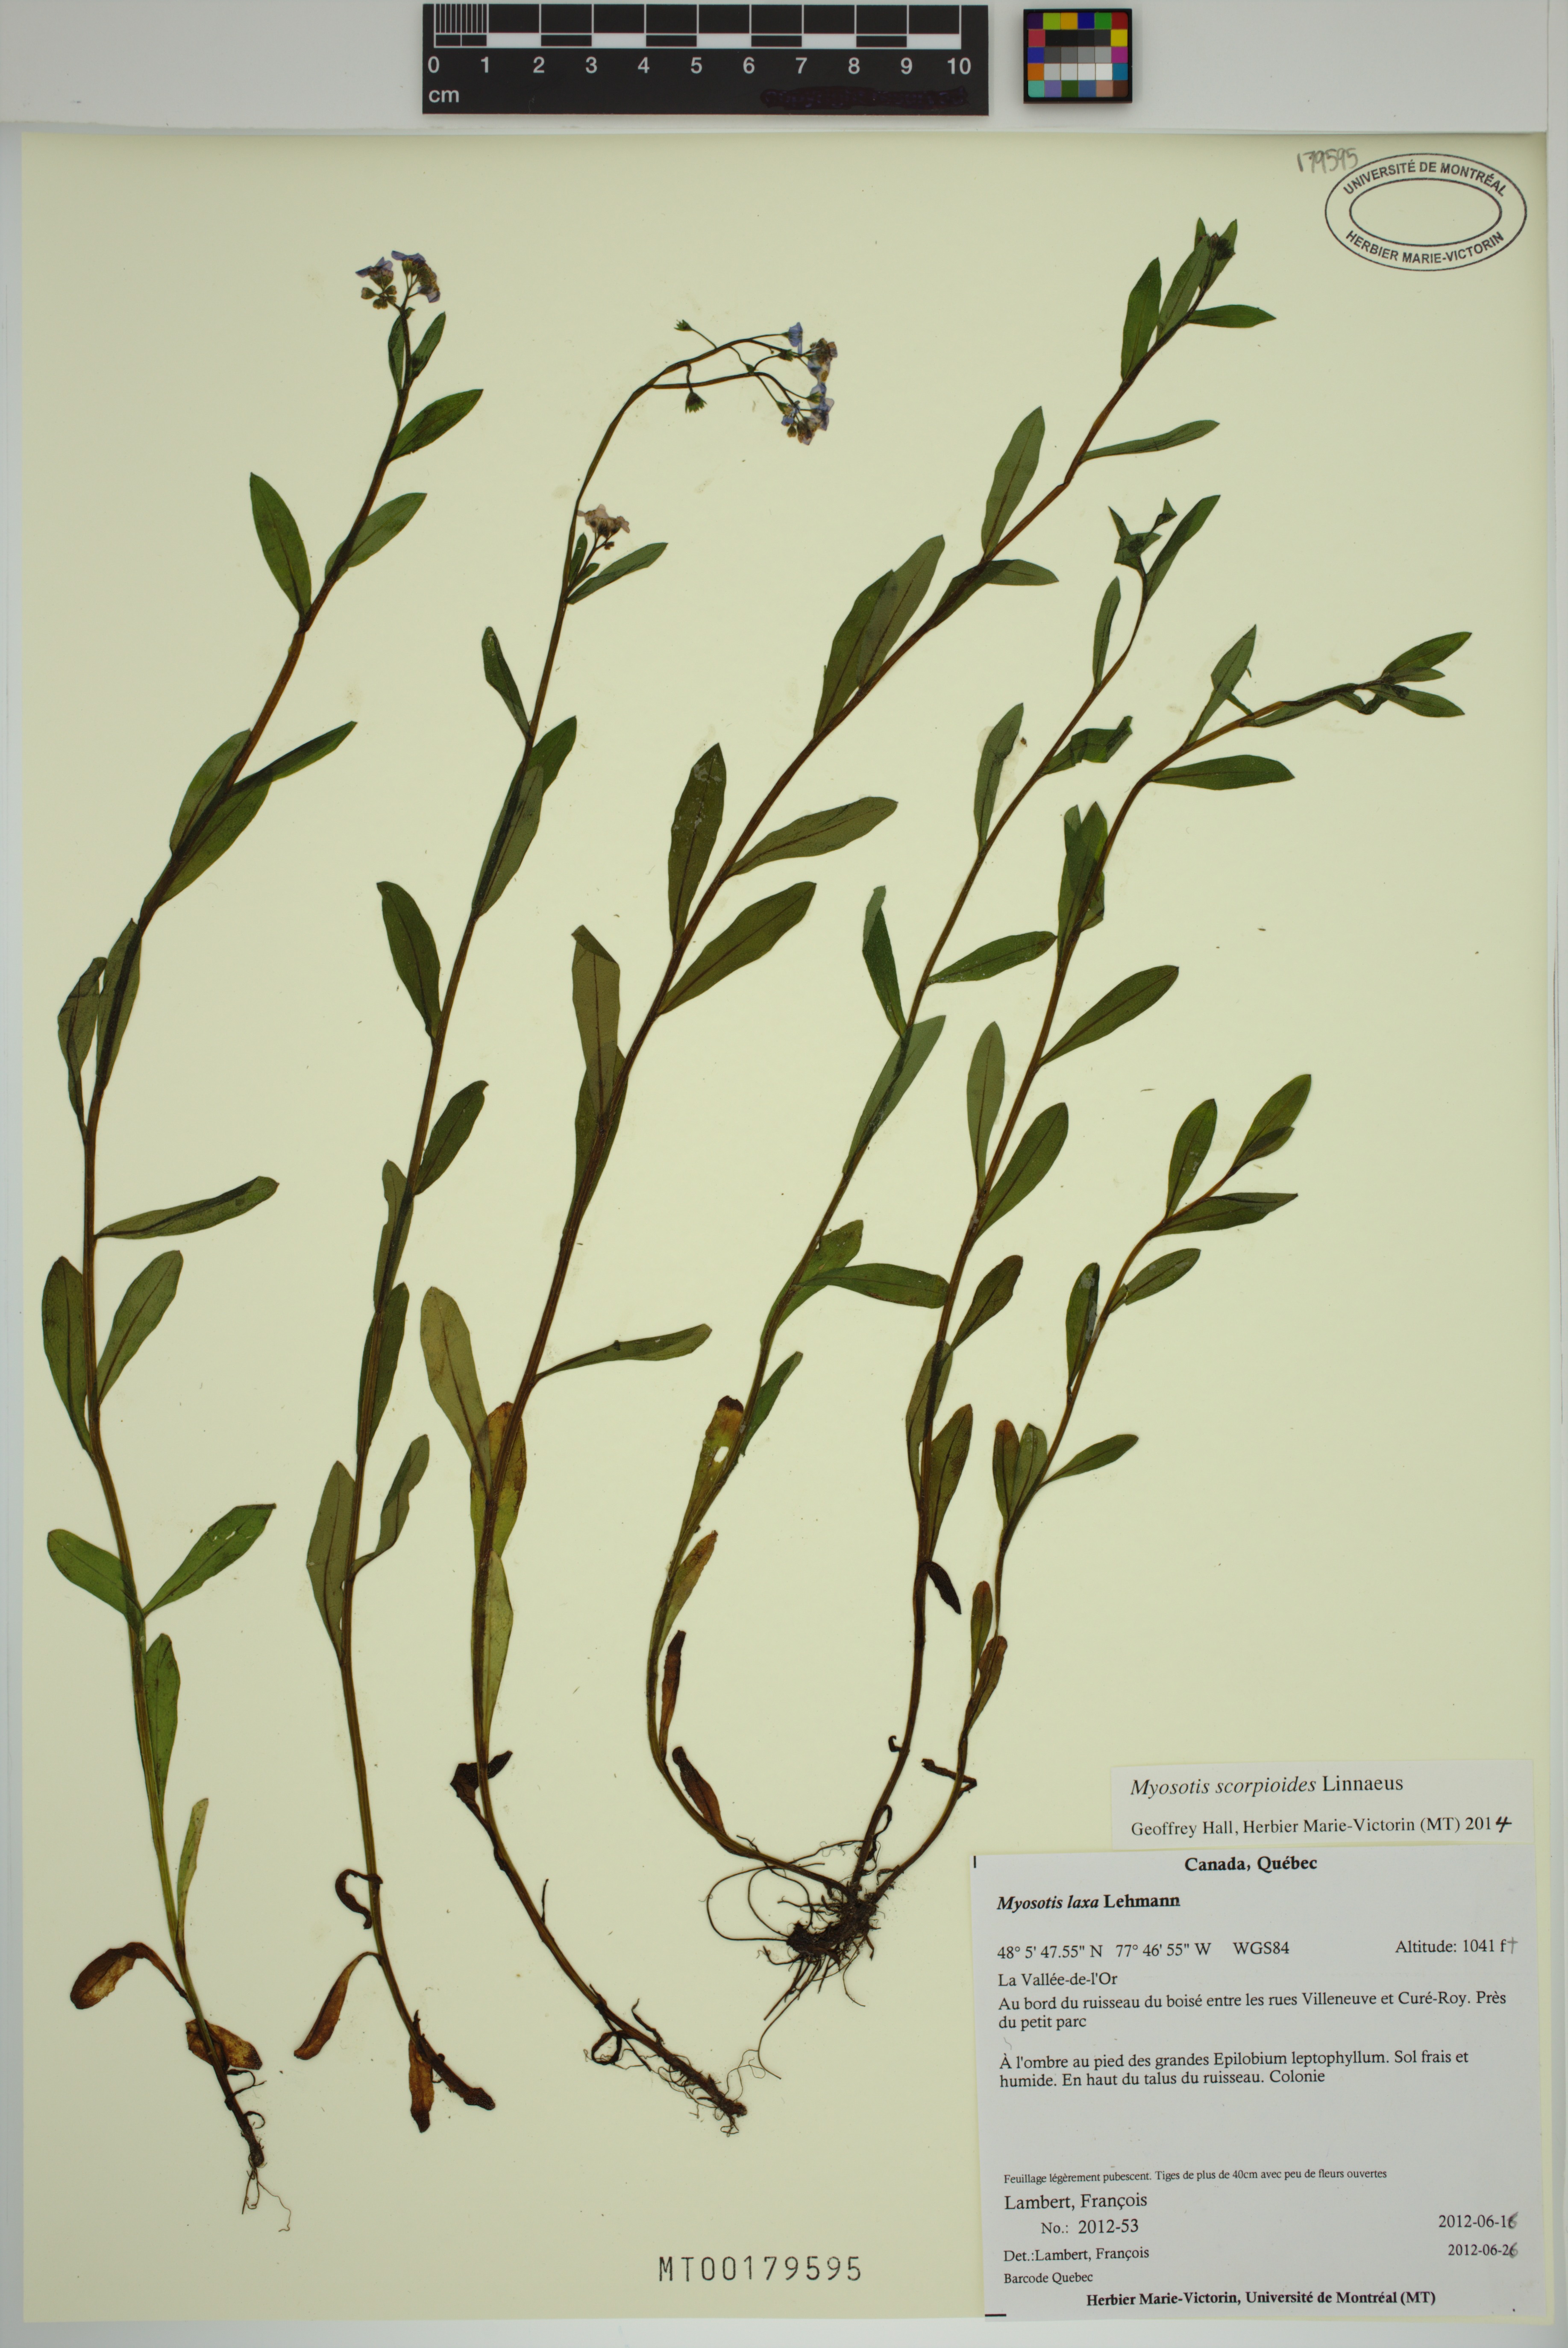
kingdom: Plantae
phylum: Tracheophyta
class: Magnoliopsida
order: Boraginales
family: Boraginaceae
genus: Myosotis
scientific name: Myosotis scorpioides
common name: Water forget-me-not
